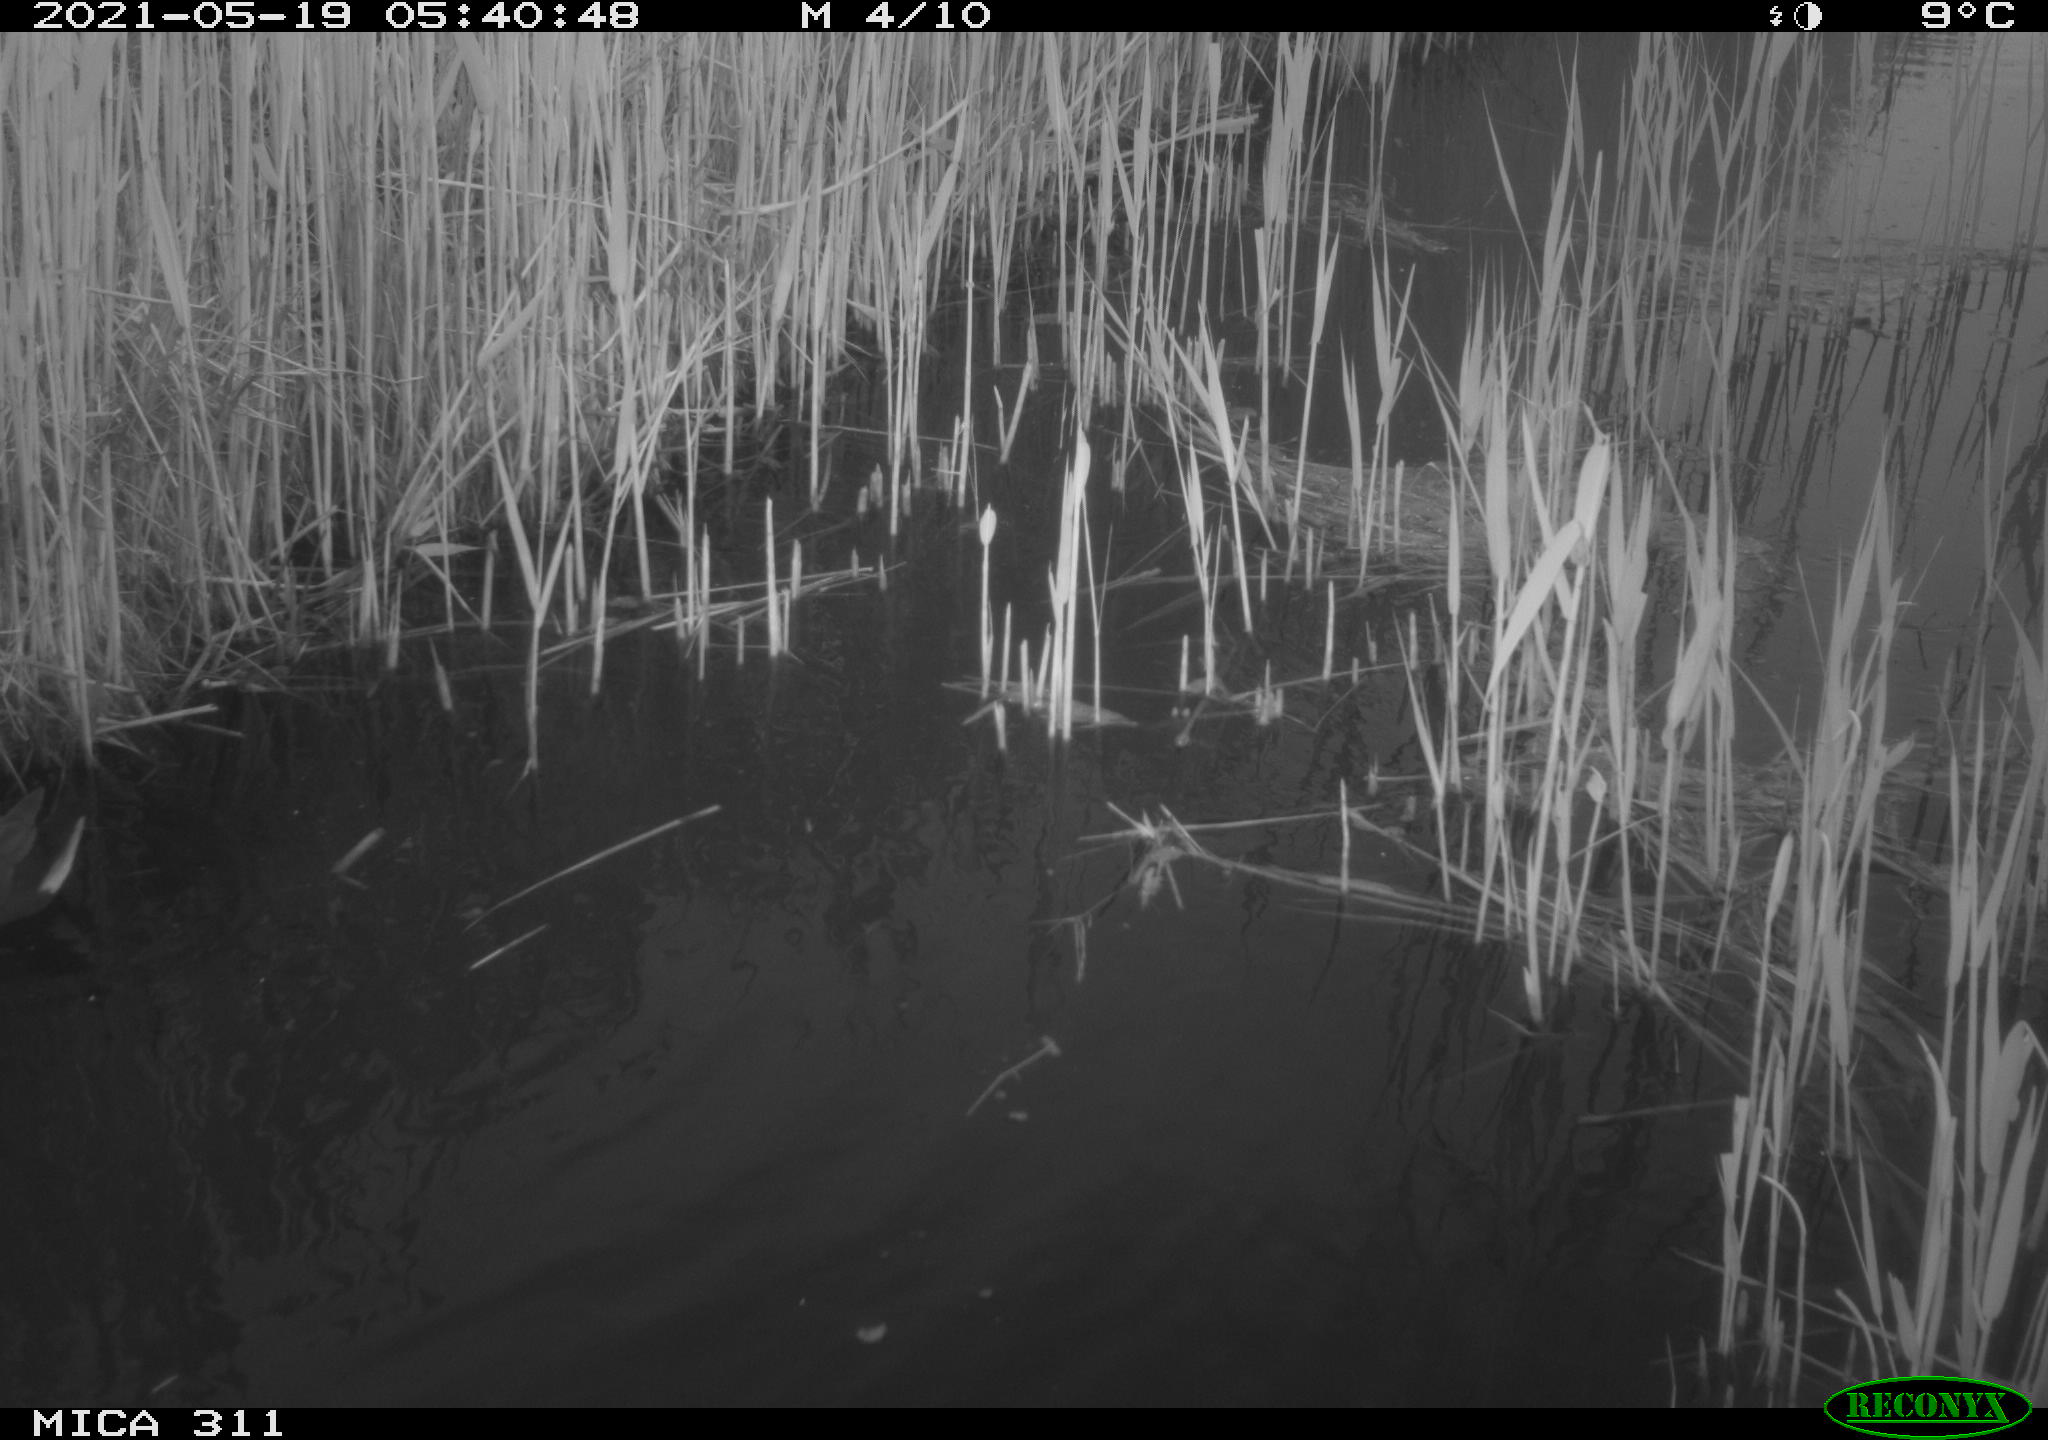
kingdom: Animalia
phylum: Chordata
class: Aves
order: Gruiformes
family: Rallidae
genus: Gallinula
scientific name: Gallinula chloropus
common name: Common moorhen
